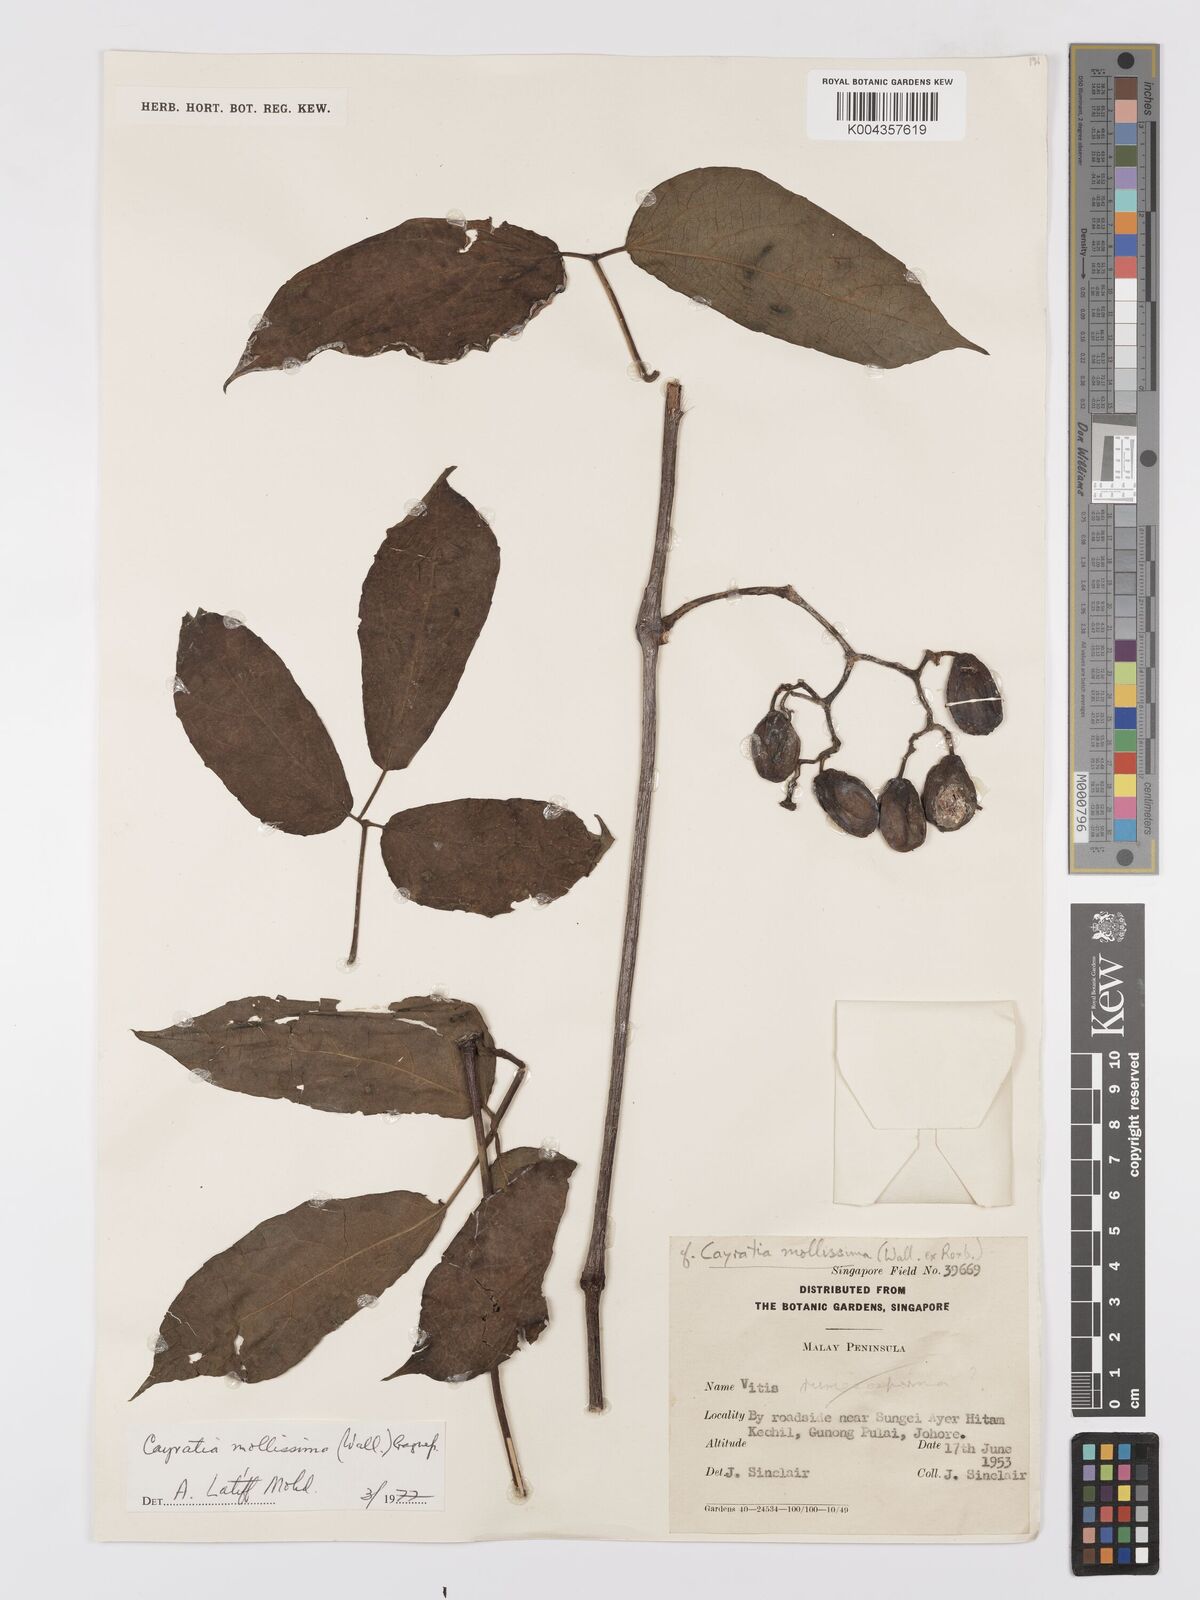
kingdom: Plantae
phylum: Tracheophyta
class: Magnoliopsida
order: Vitales
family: Vitaceae
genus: Cayratia
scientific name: Cayratia mollissima
